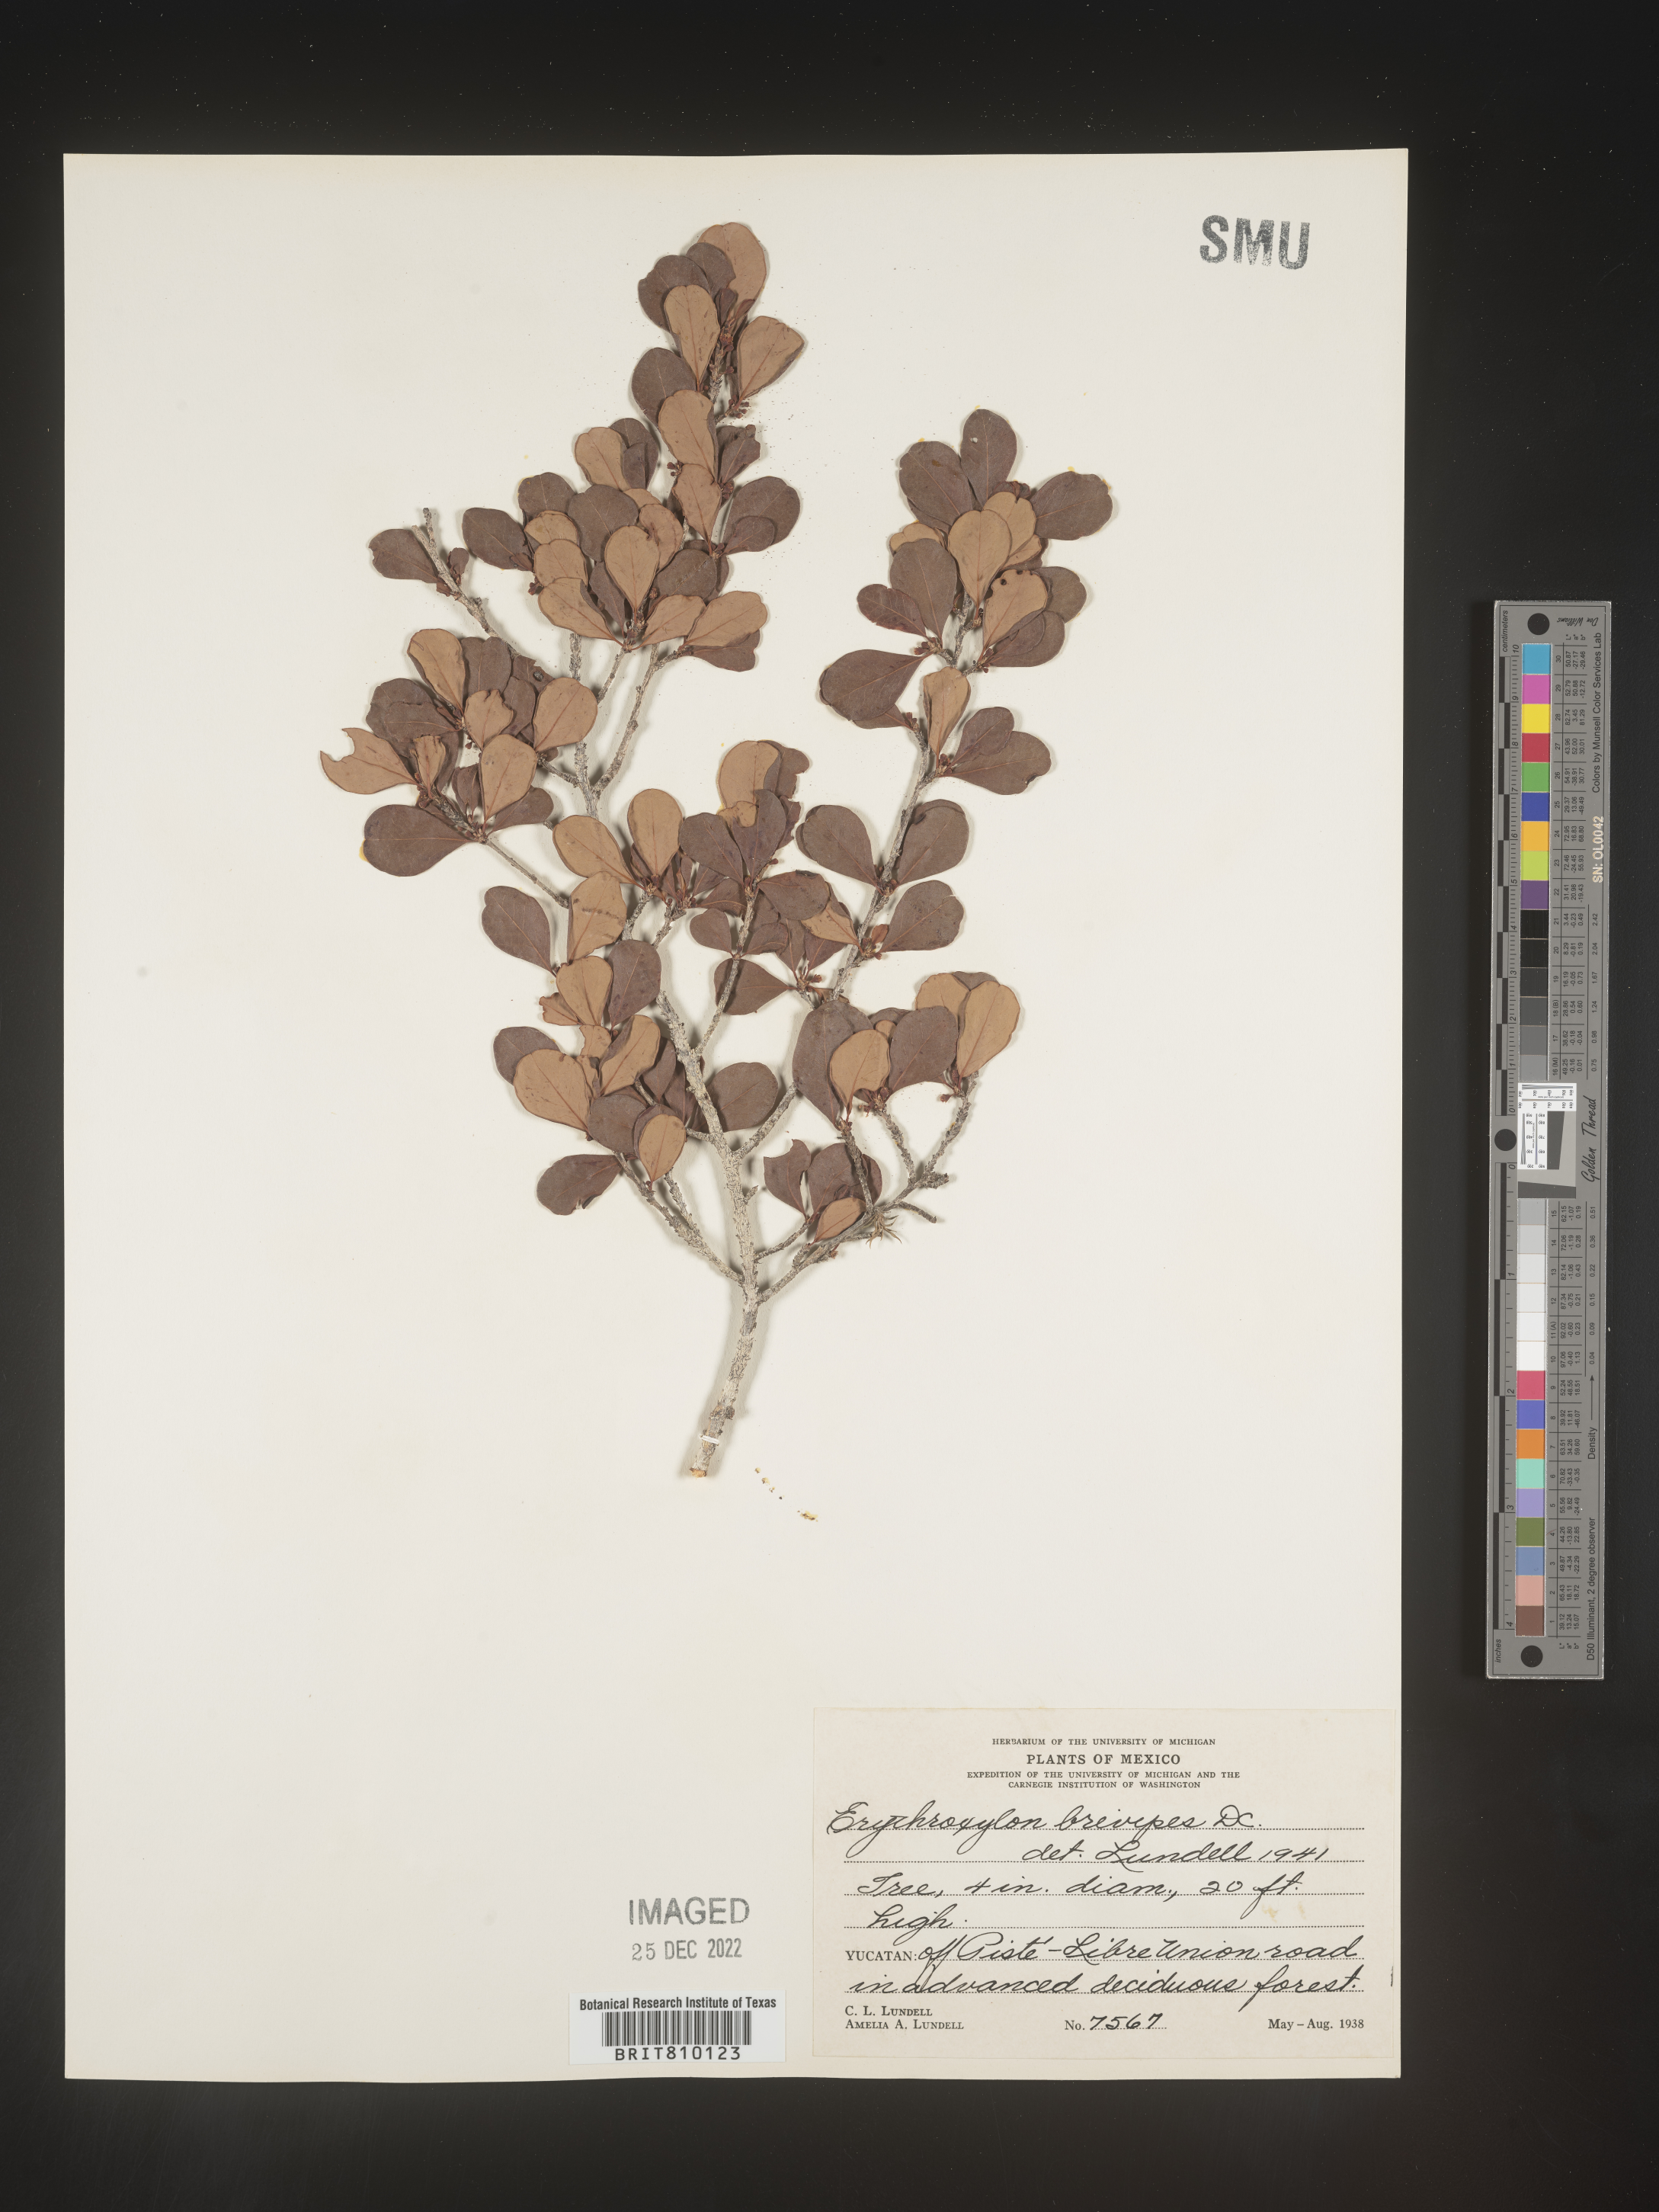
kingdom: Plantae
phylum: Tracheophyta
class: Magnoliopsida
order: Malpighiales
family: Erythroxylaceae
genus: Erythroxylum
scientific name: Erythroxylum
